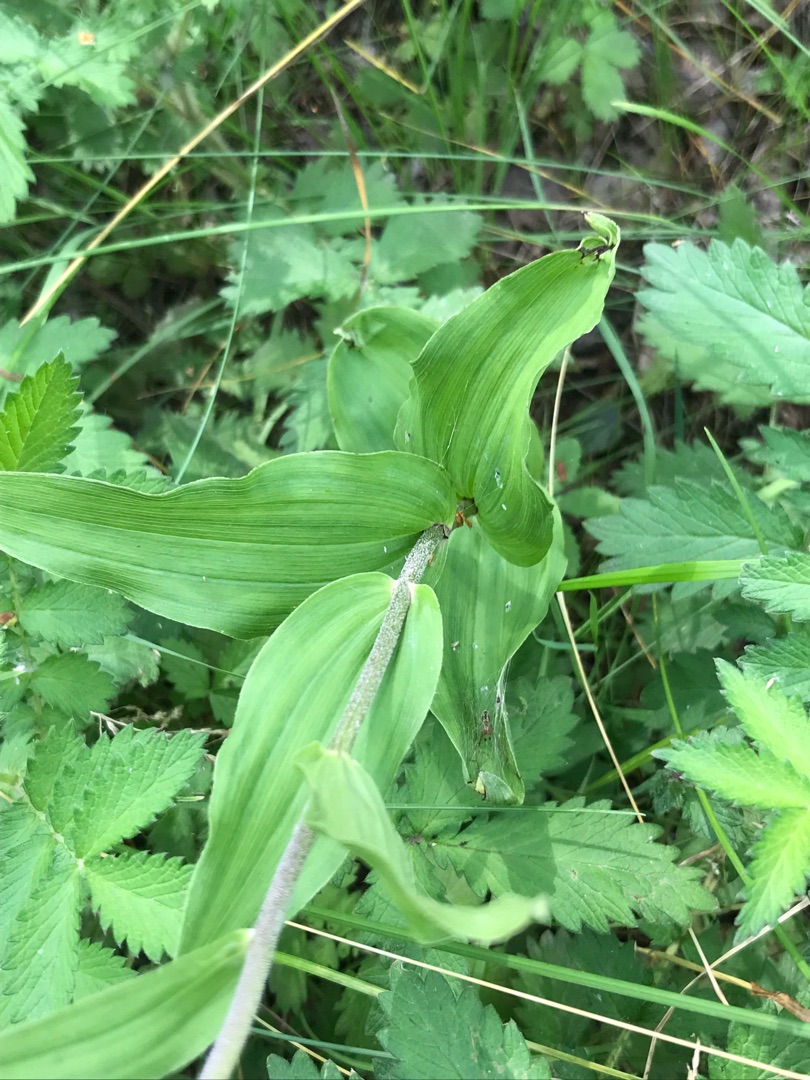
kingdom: Plantae
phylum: Tracheophyta
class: Liliopsida
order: Asparagales
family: Orchidaceae
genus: Epipactis
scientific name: Epipactis helleborine
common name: Skov-hullæbe
